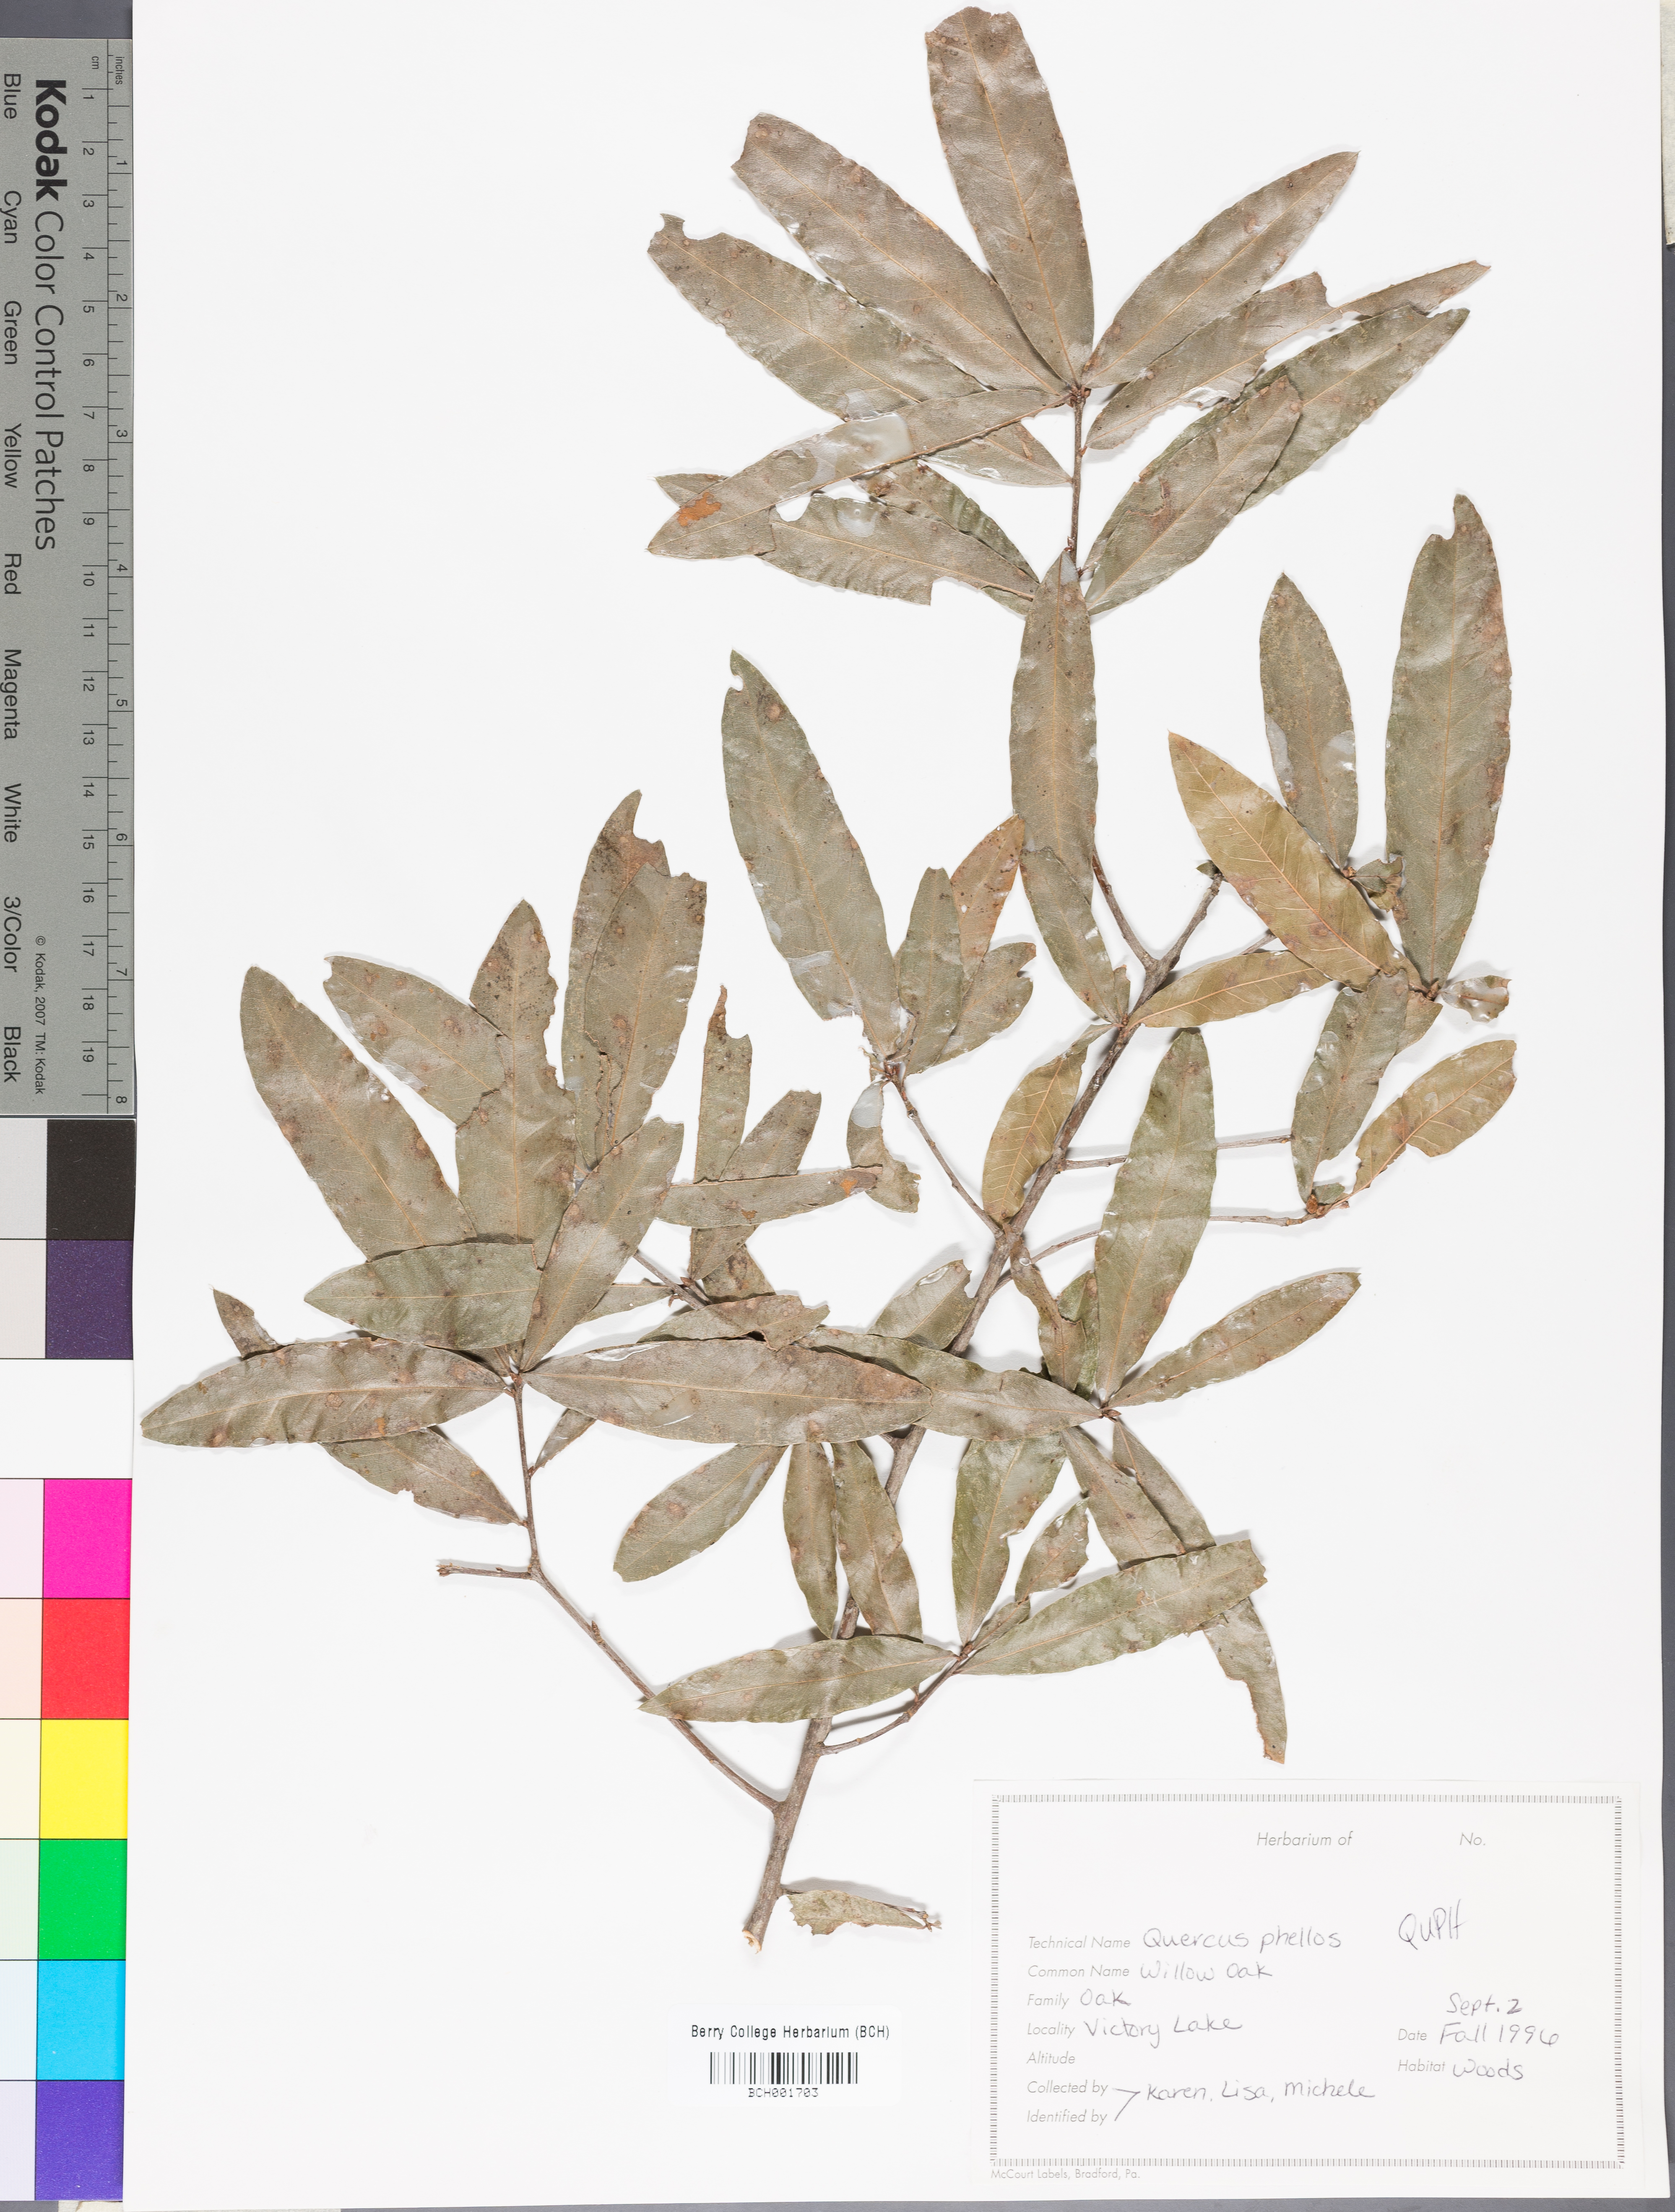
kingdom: Plantae
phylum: Tracheophyta
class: Magnoliopsida
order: Fagales
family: Fagaceae
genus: Quercus
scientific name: Quercus phellos
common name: Willow oak
